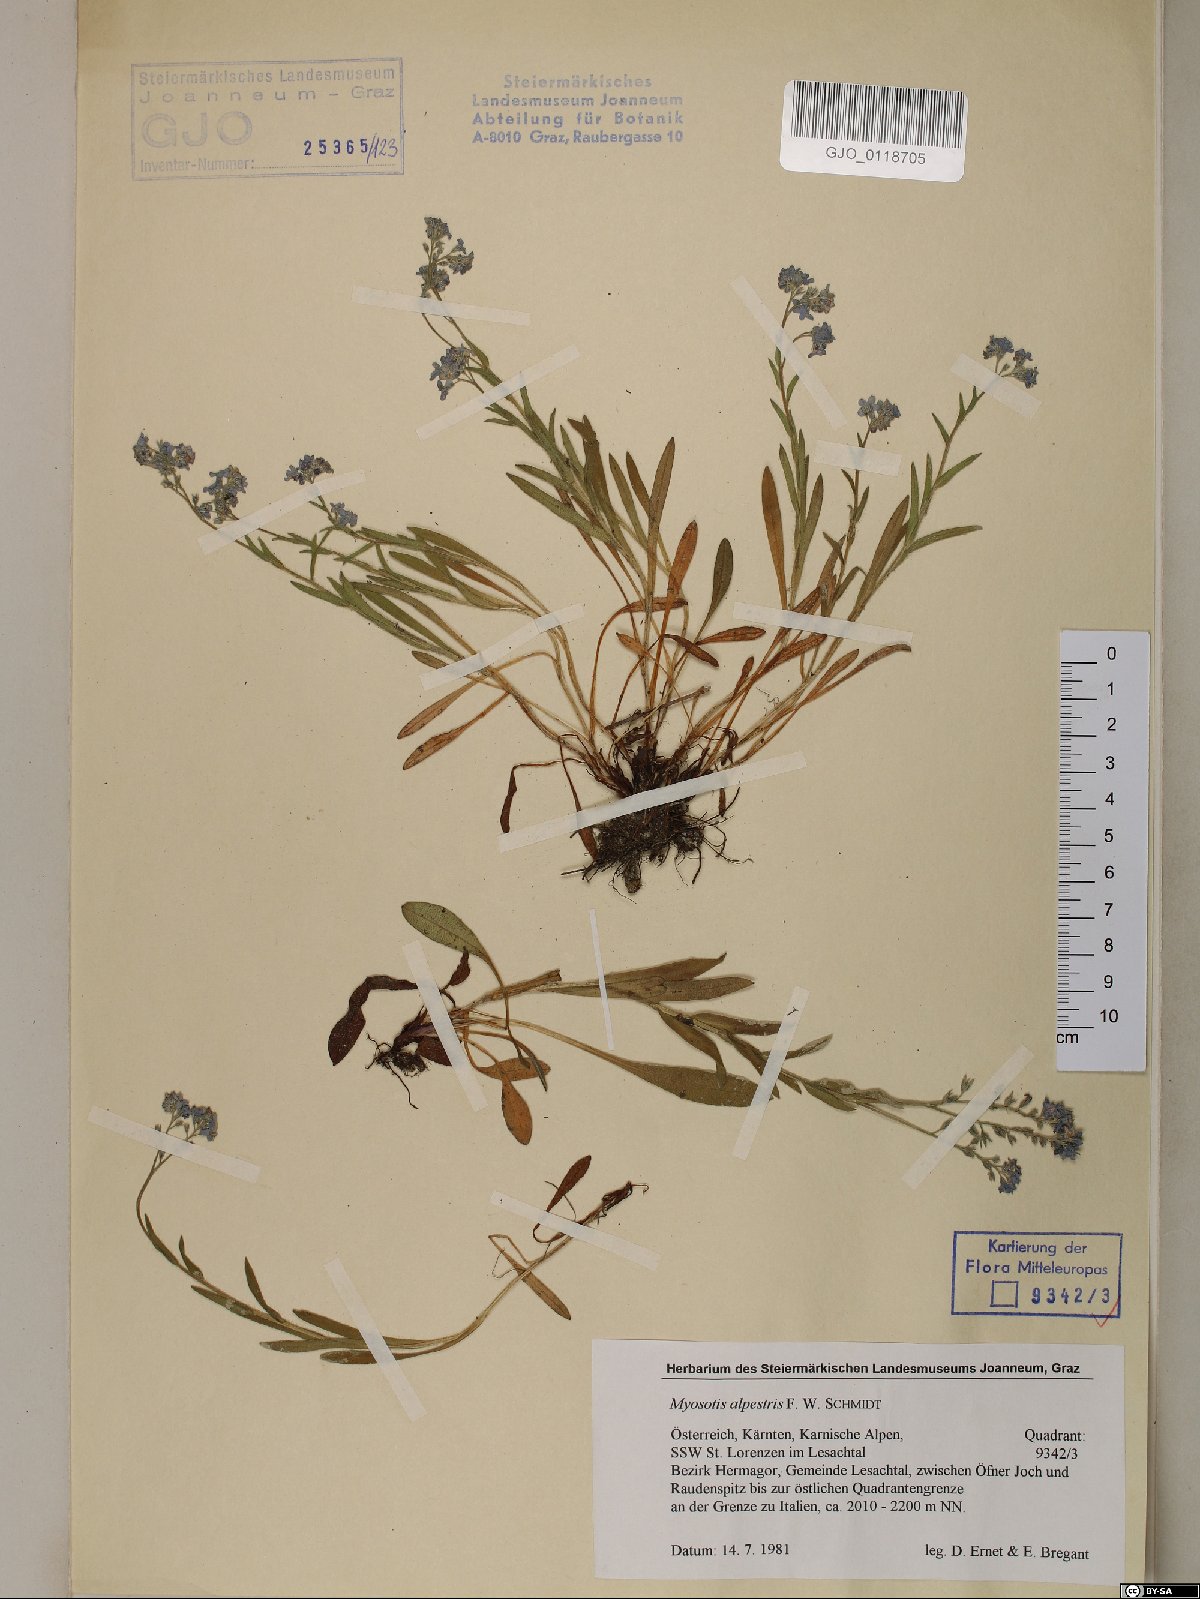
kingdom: Plantae
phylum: Tracheophyta
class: Magnoliopsida
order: Boraginales
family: Boraginaceae
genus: Myosotis
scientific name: Myosotis alpestris
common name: Alpine forget-me-not
